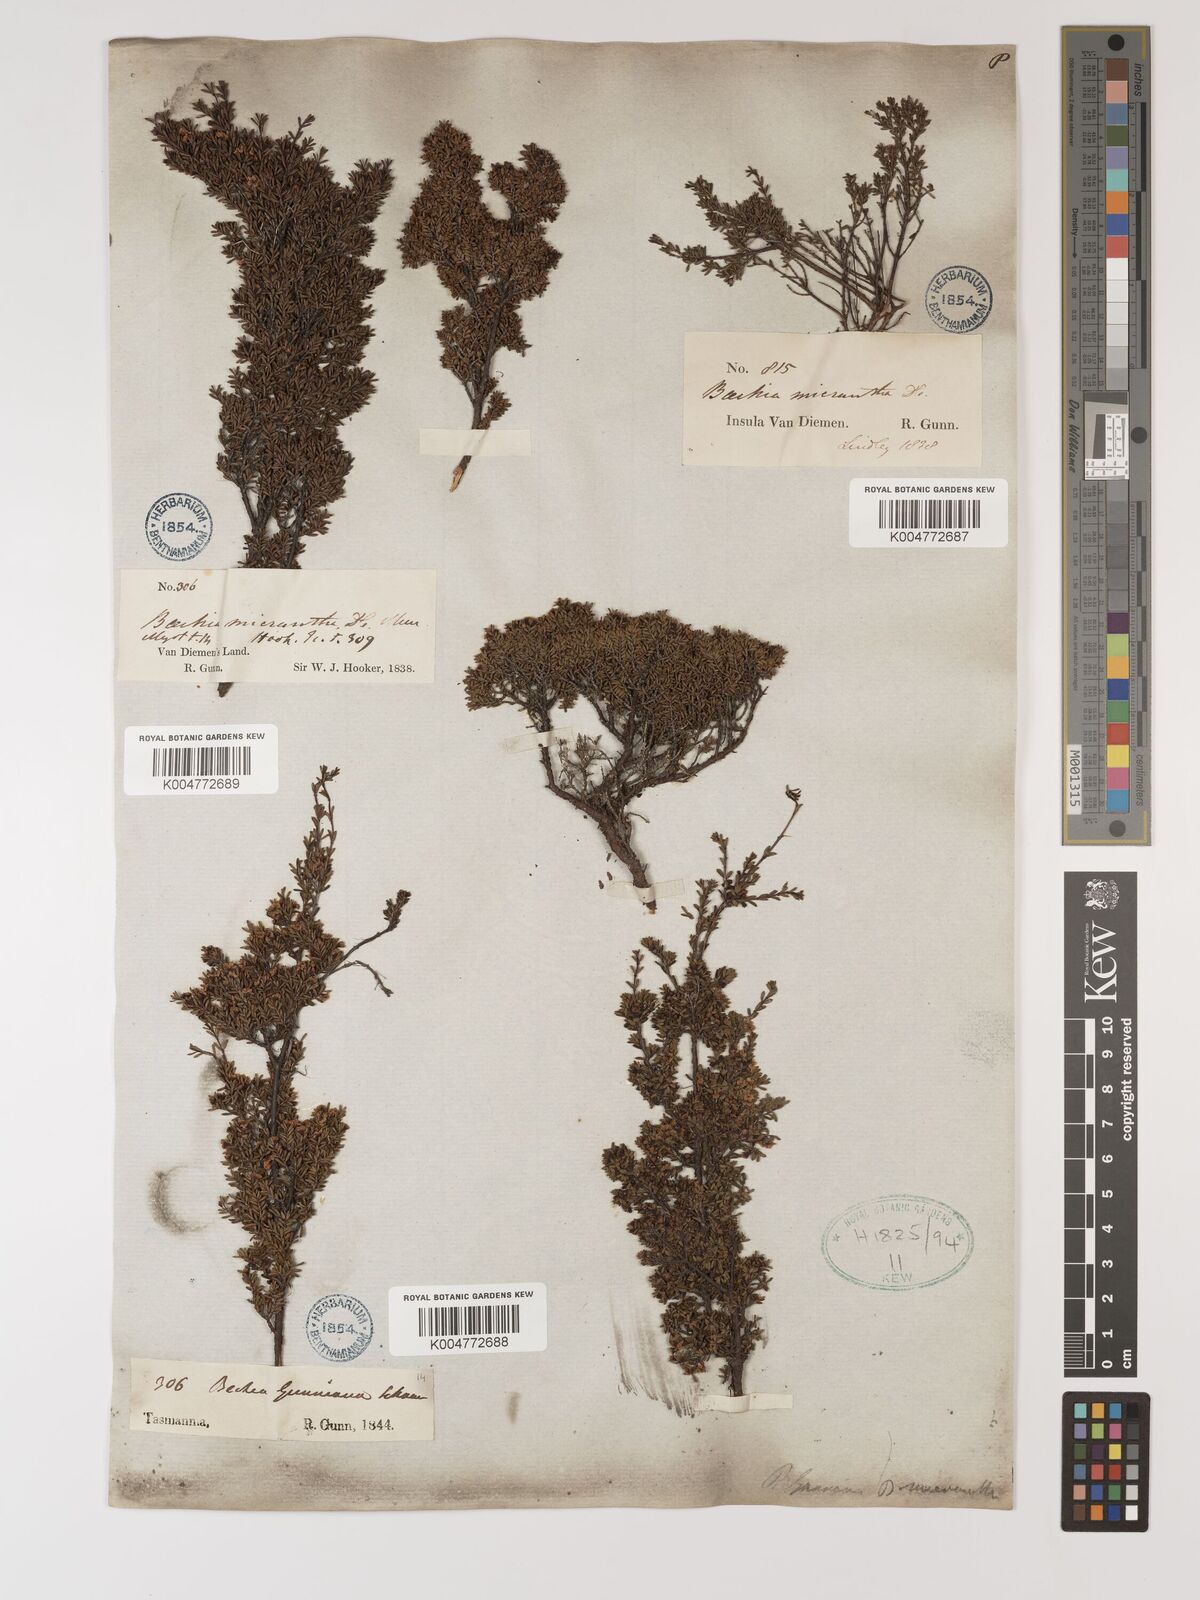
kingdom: Plantae
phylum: Tracheophyta
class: Magnoliopsida
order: Myrtales
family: Myrtaceae
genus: Baeckea
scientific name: Baeckea gunniana
